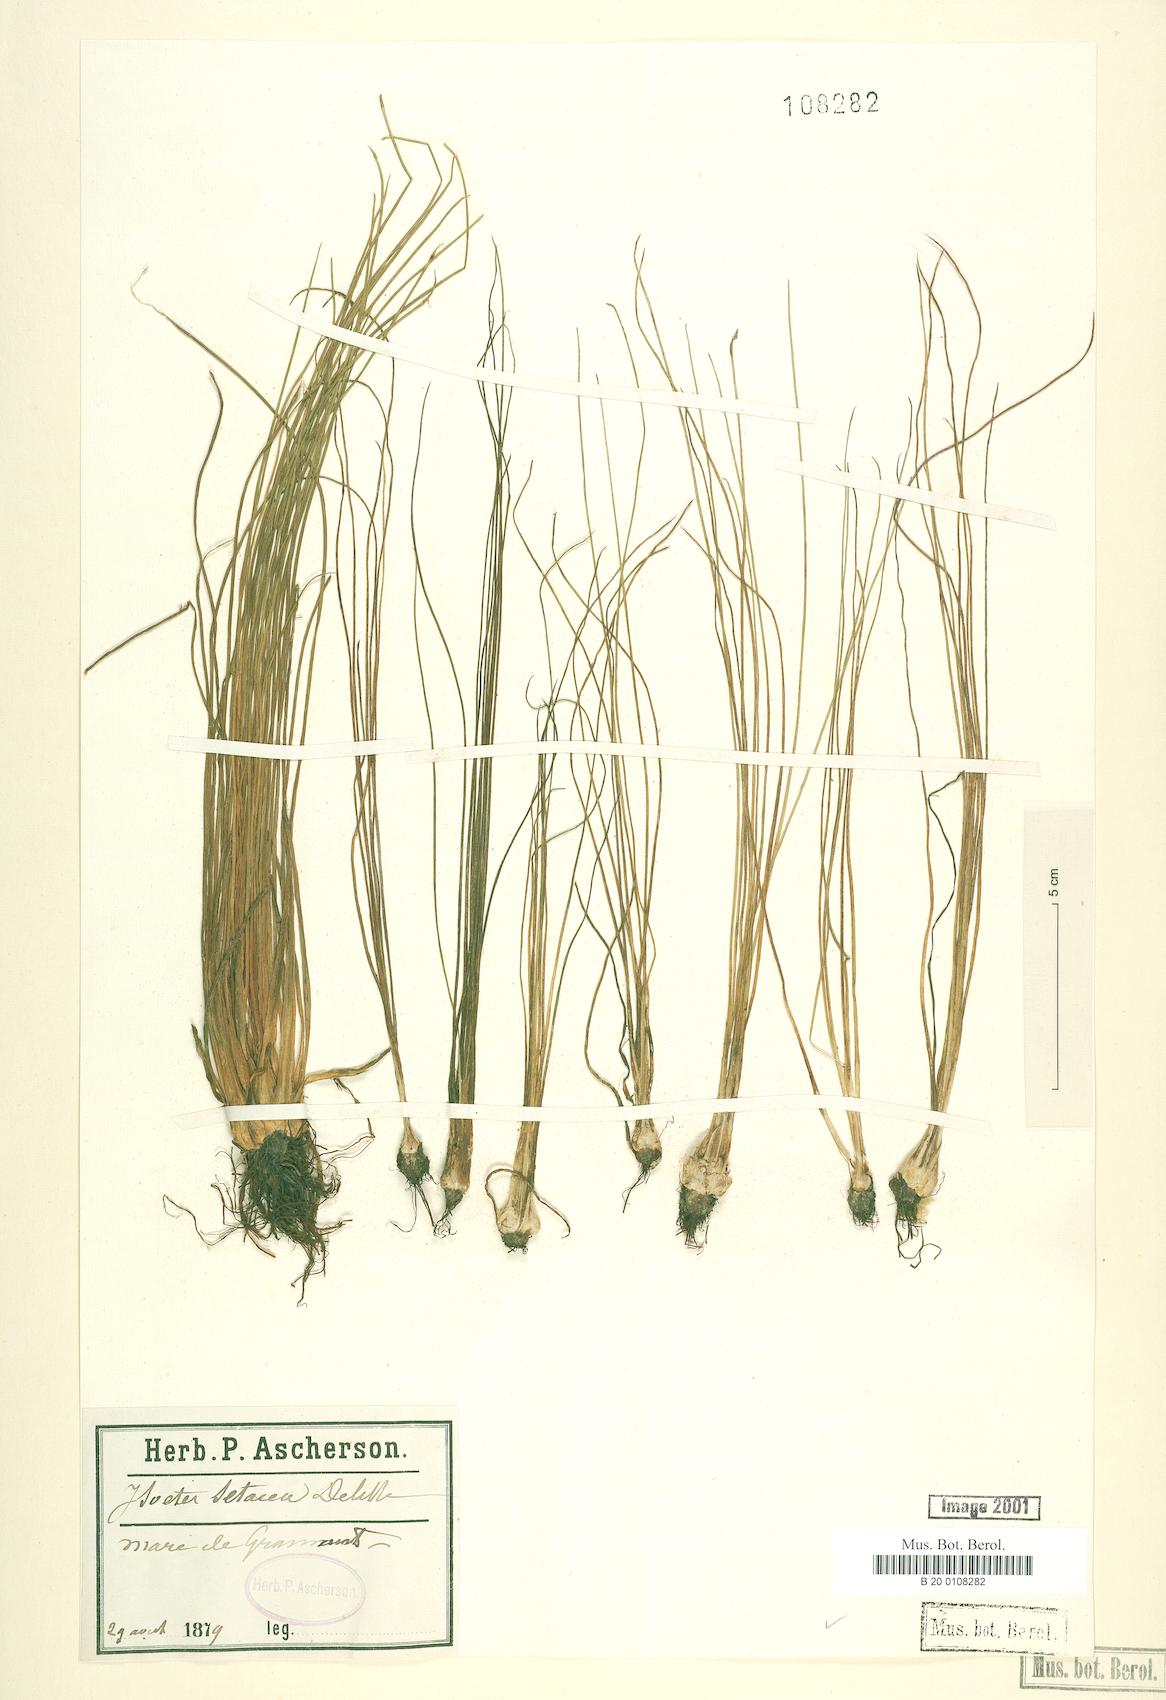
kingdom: Plantae
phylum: Tracheophyta
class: Lycopodiopsida
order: Isoetales
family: Isoetaceae
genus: Isoetes
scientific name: Isoetes lacustris
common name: Common quillwort
